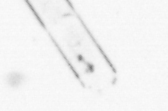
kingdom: Chromista
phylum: Ochrophyta
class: Bacillariophyceae
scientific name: Bacillariophyceae
